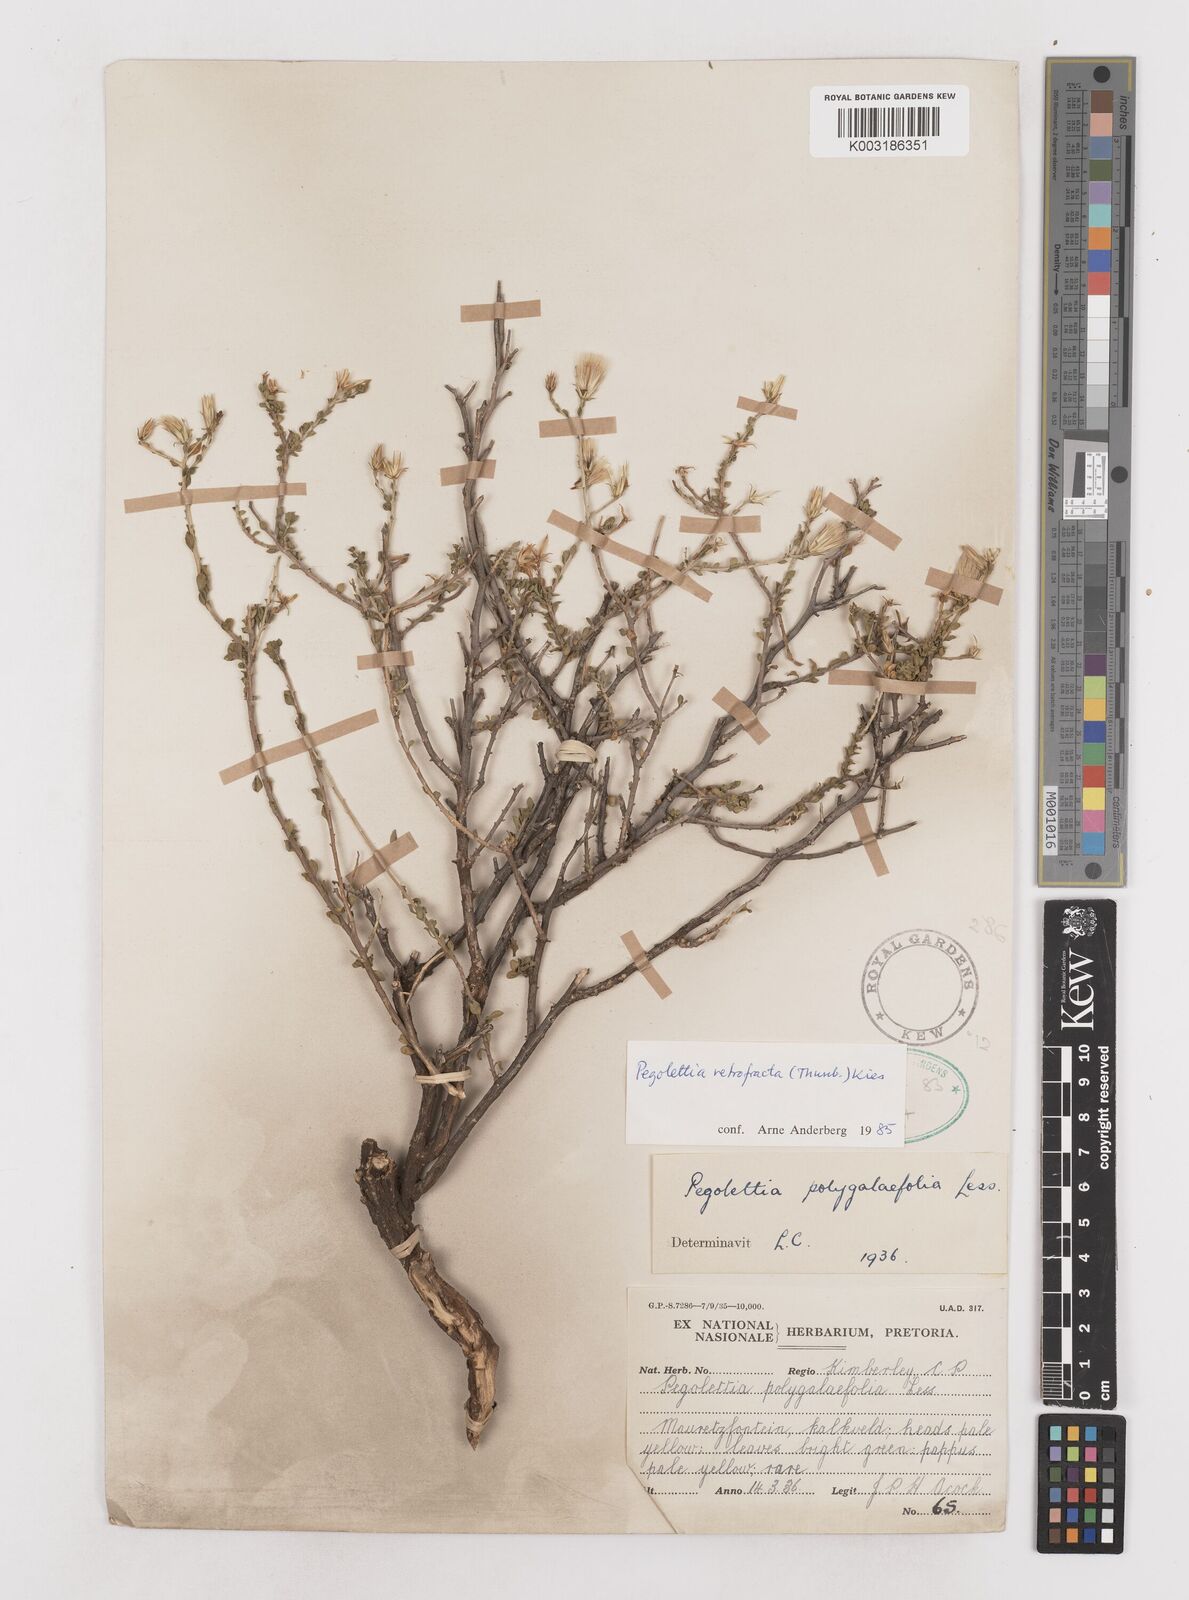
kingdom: Plantae
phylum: Tracheophyta
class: Magnoliopsida
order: Asterales
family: Asteraceae
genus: Pegolettia
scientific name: Pegolettia retrofracta
